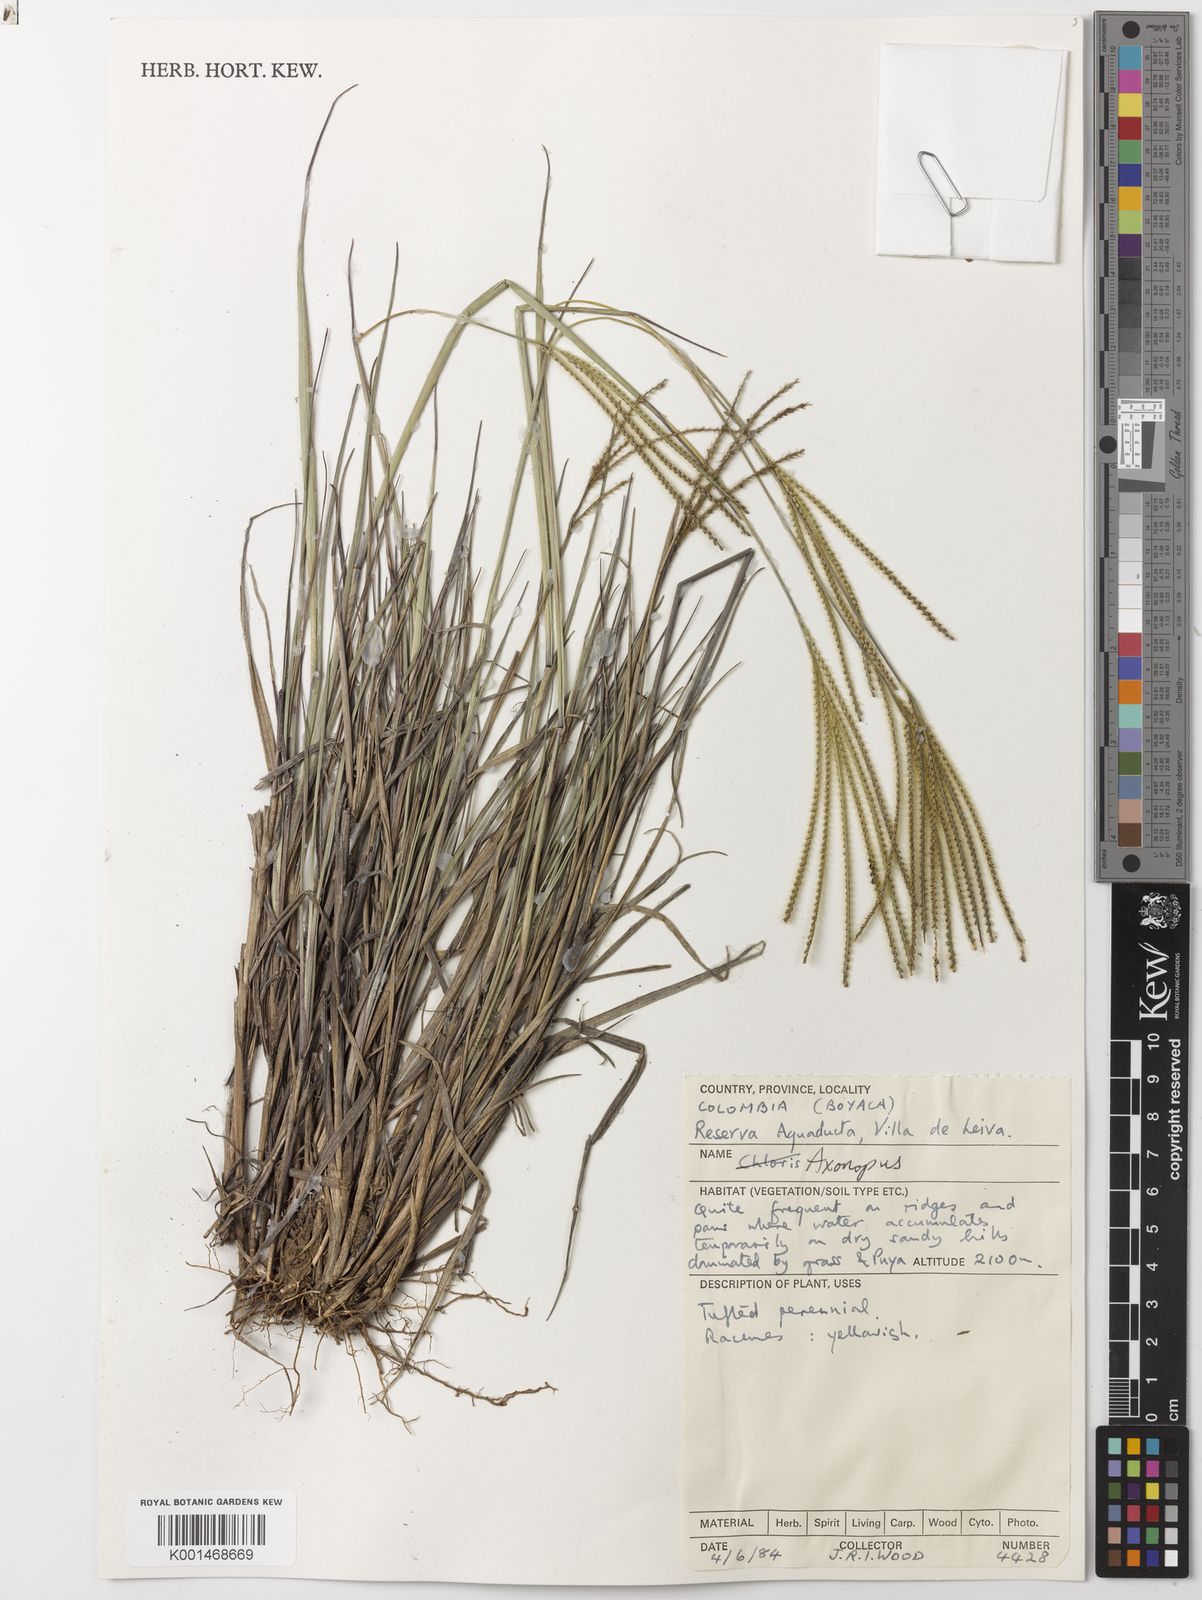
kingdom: Plantae
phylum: Tracheophyta
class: Liliopsida
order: Poales
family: Poaceae
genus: Axonopus
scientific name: Axonopus aureus
